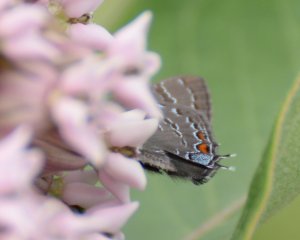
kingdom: Animalia
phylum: Arthropoda
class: Insecta
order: Lepidoptera
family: Lycaenidae
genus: Satyrium
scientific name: Satyrium calanus
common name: Banded Hairstreak
